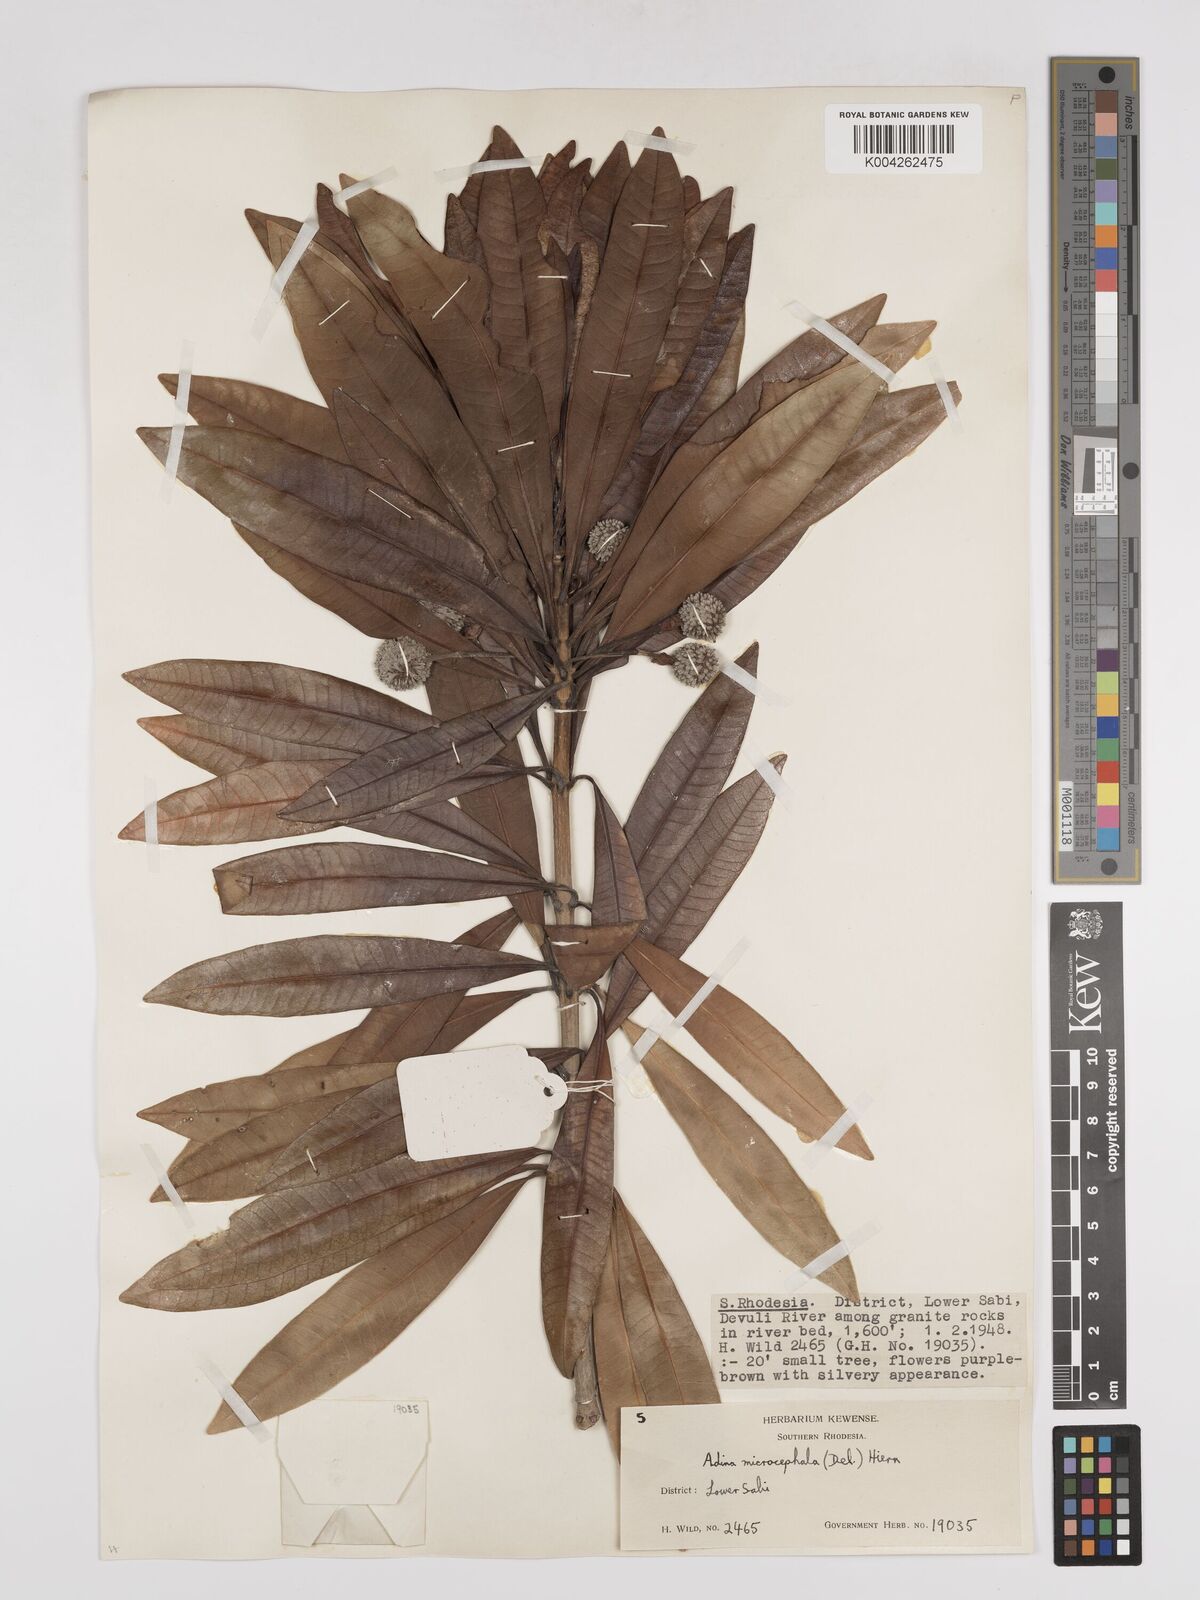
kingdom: Plantae
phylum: Tracheophyta
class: Magnoliopsida
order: Gentianales
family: Rubiaceae
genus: Breonadia
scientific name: Breonadia salicina
